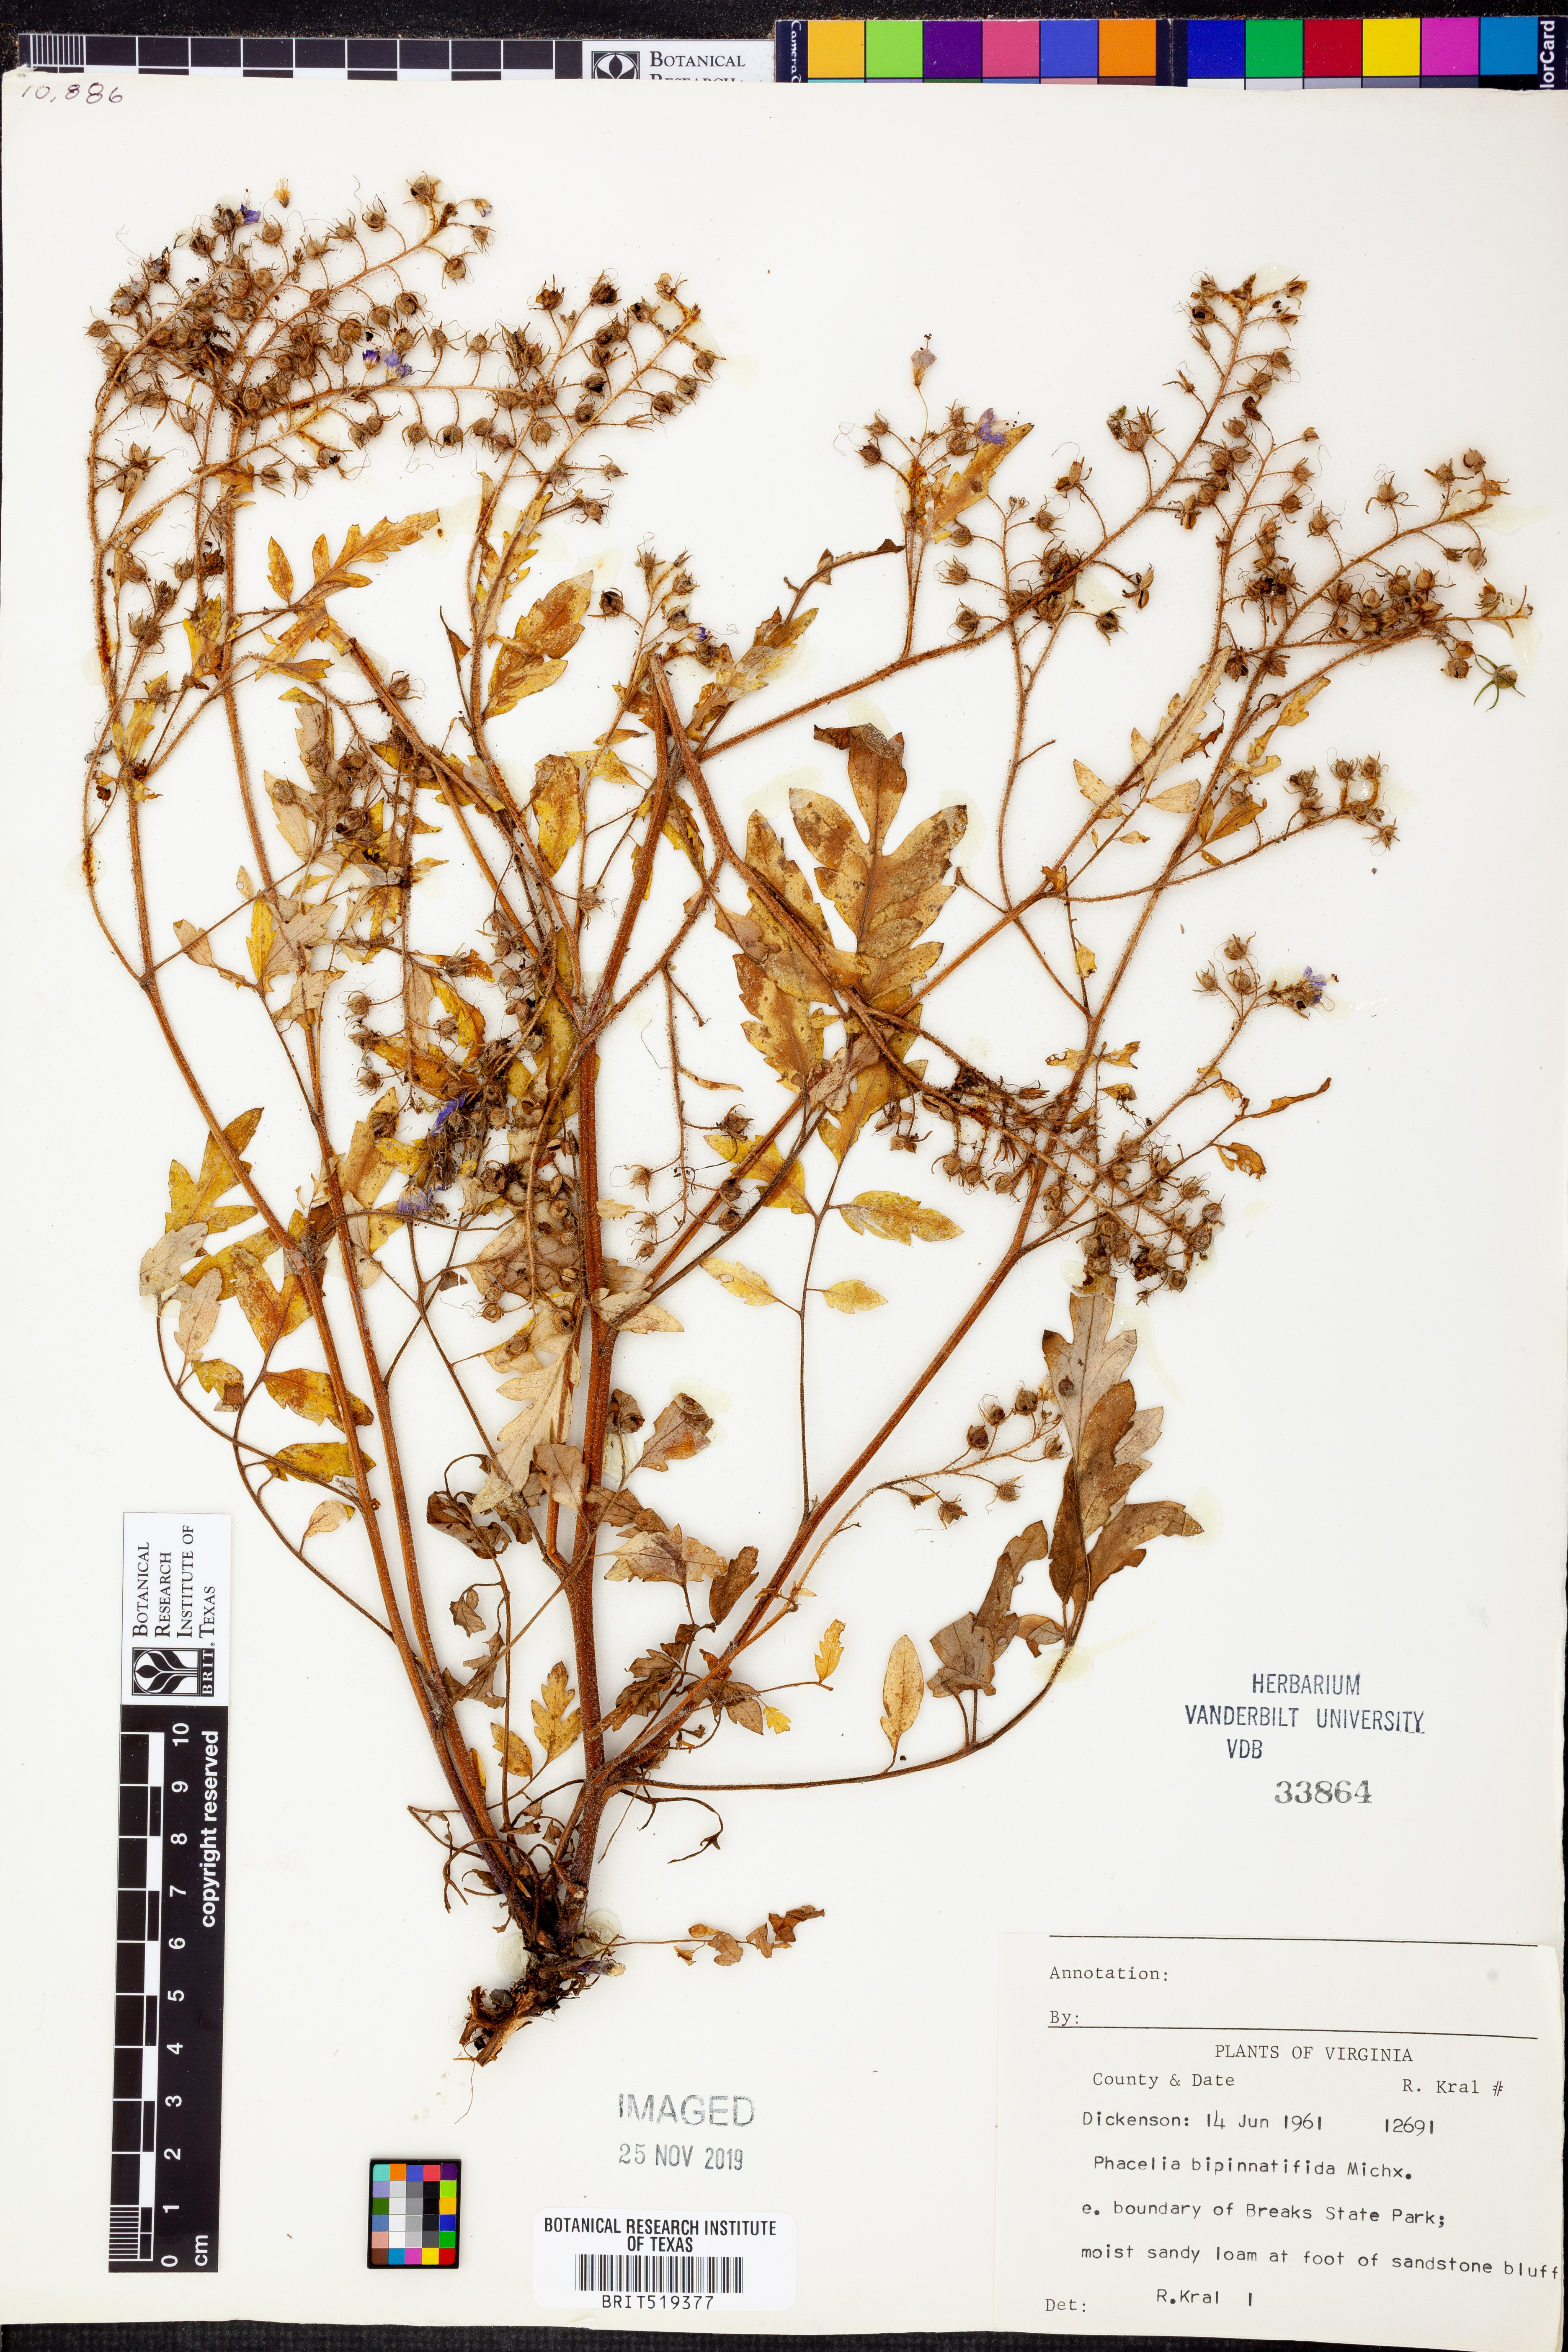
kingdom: Plantae
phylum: Tracheophyta
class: Magnoliopsida
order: Boraginales
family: Hydrophyllaceae
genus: Phacelia
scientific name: Phacelia bipinnatifida
